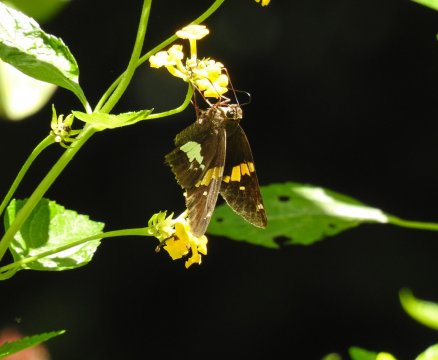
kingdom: Animalia
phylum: Arthropoda
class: Insecta
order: Lepidoptera
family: Hesperiidae
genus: Epargyreus
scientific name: Epargyreus clarus
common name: Silver-spotted Skipper
